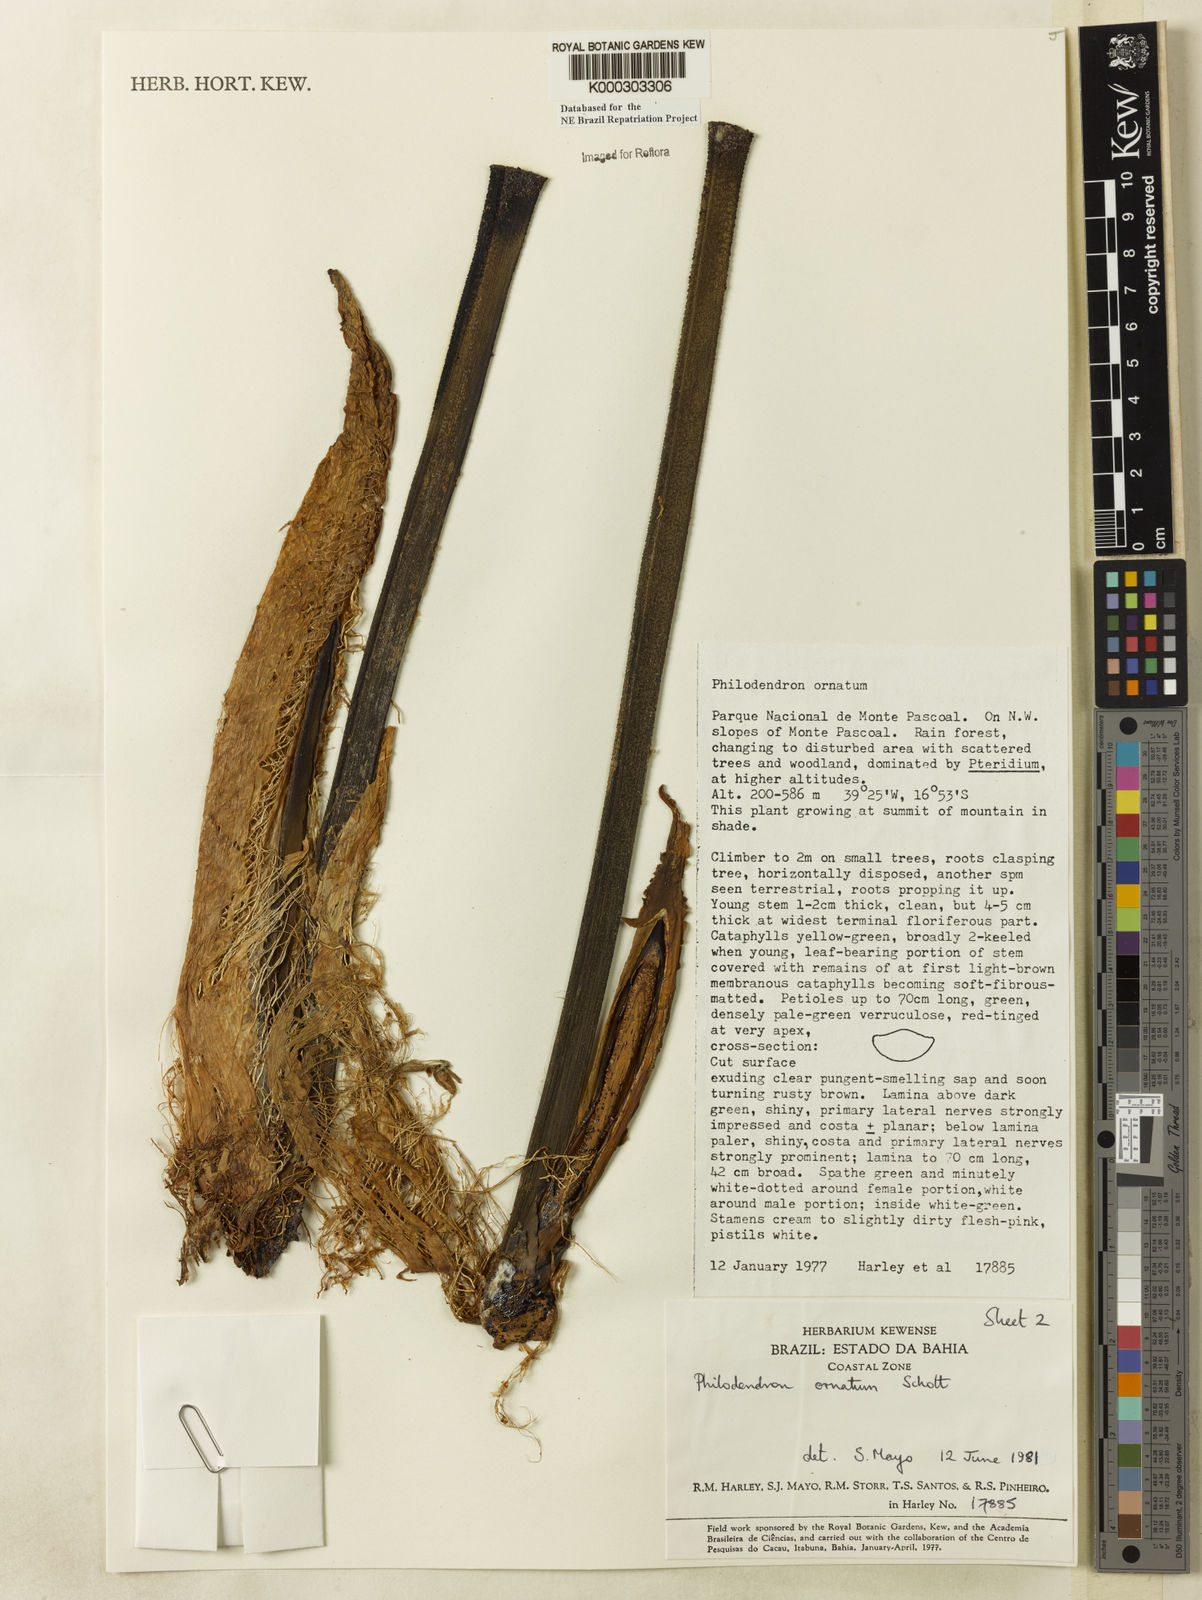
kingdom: Plantae
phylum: Tracheophyta
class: Liliopsida
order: Alismatales
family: Araceae
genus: Philodendron
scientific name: Philodendron ornatum
